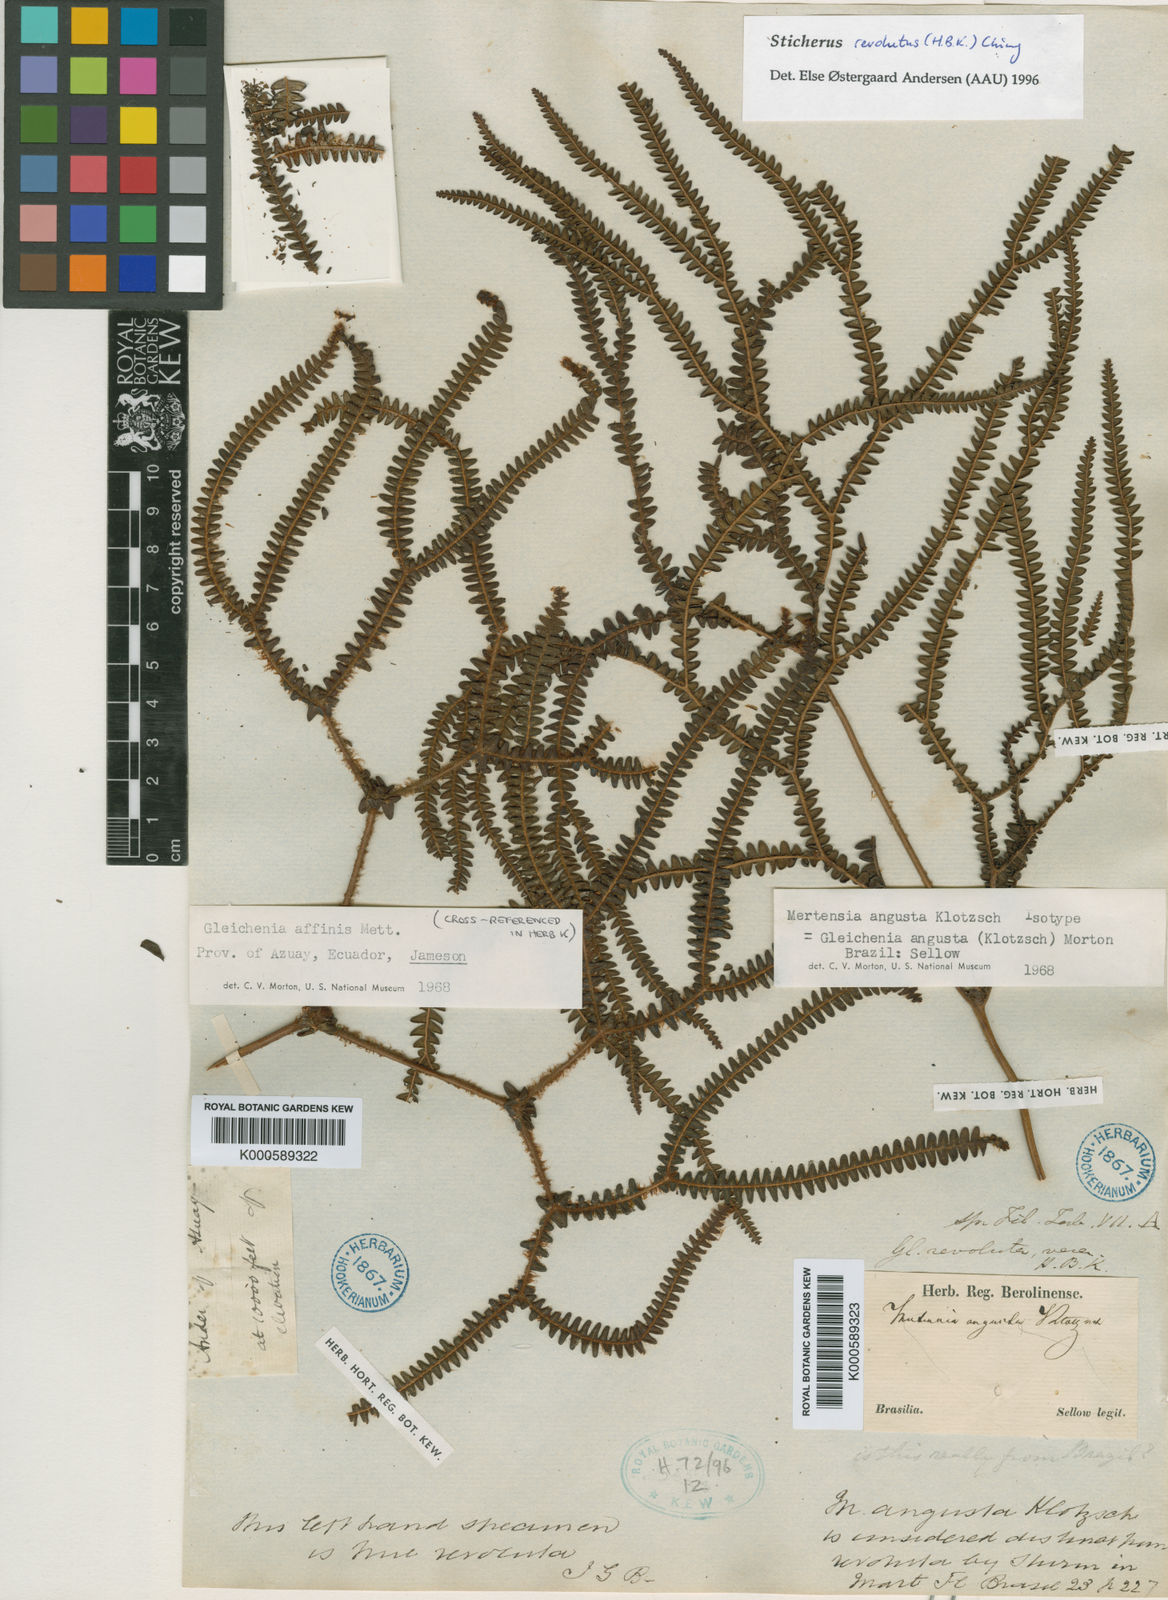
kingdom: Plantae
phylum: Tracheophyta
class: Polypodiopsida
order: Gleicheniales
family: Gleicheniaceae
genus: Sticherus
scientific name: Sticherus revolutus
